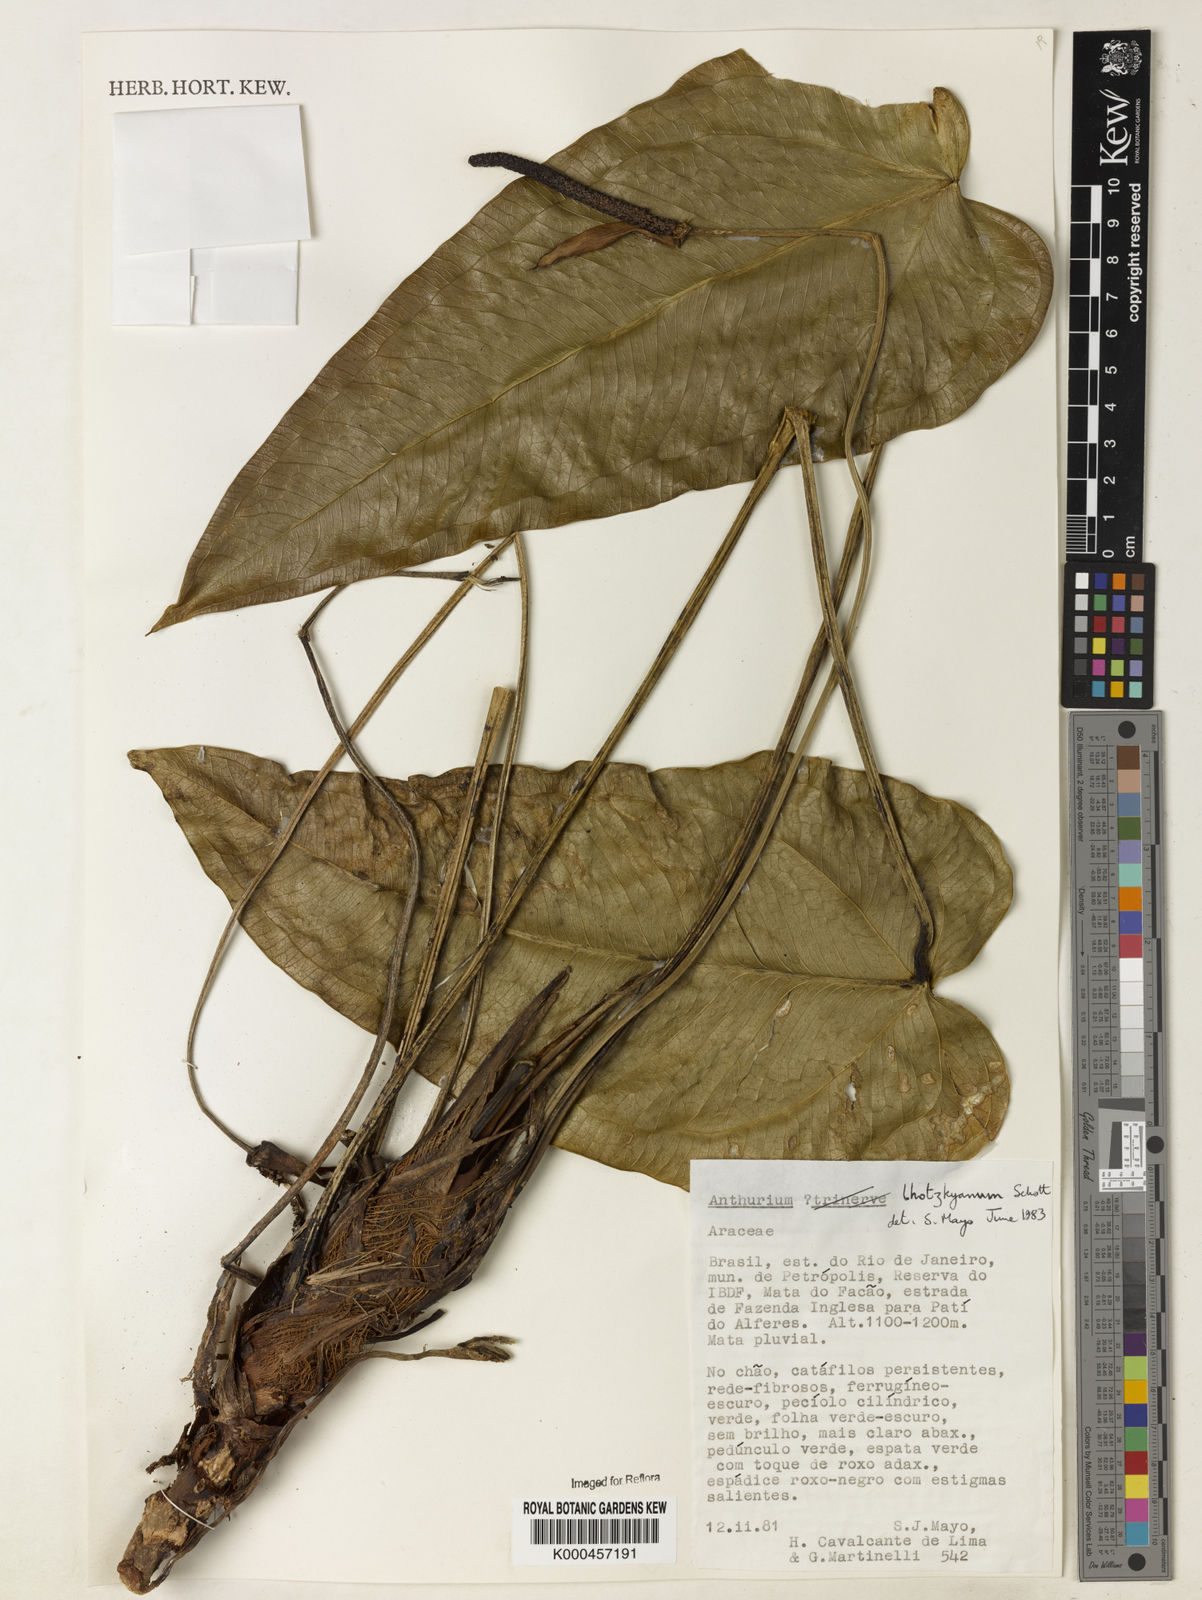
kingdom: Plantae
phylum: Tracheophyta
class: Liliopsida
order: Alismatales
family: Araceae
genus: Anthurium
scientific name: Anthurium augustinum
